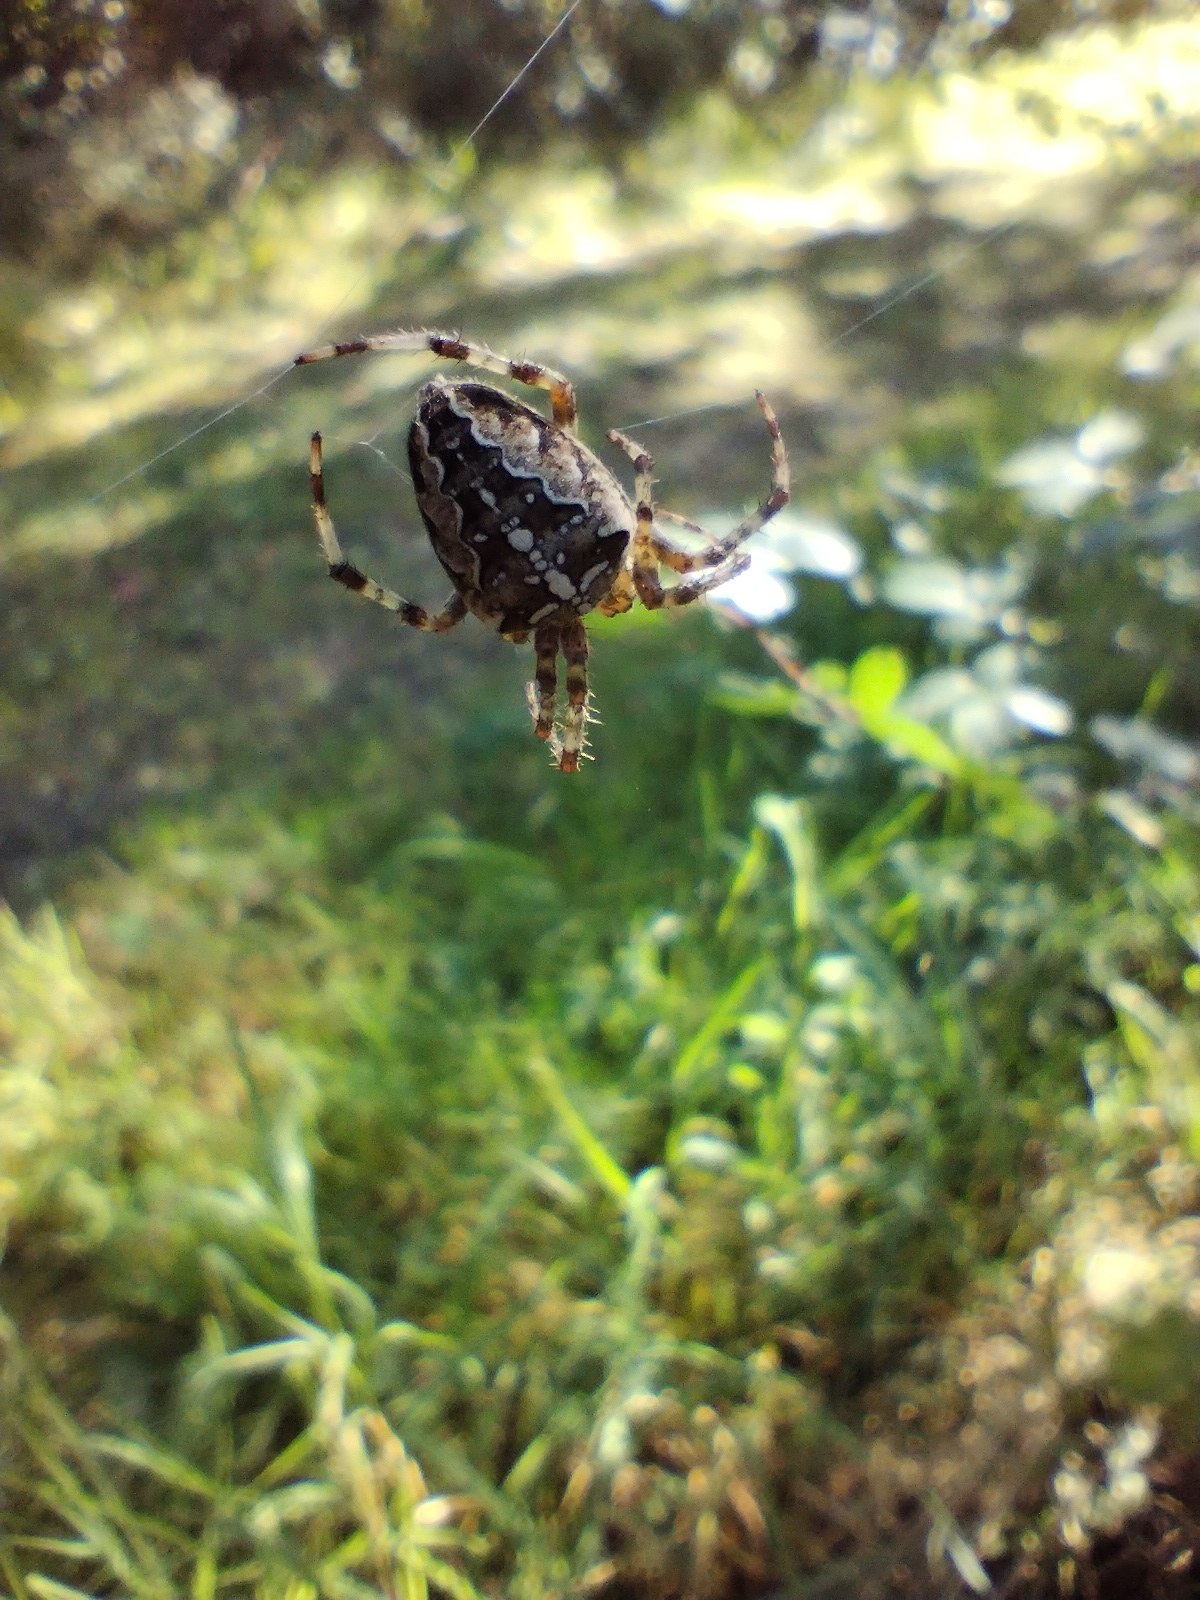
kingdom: Animalia
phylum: Arthropoda
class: Arachnida
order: Araneae
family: Araneidae
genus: Araneus
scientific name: Araneus diadematus
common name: Korsedderkop
